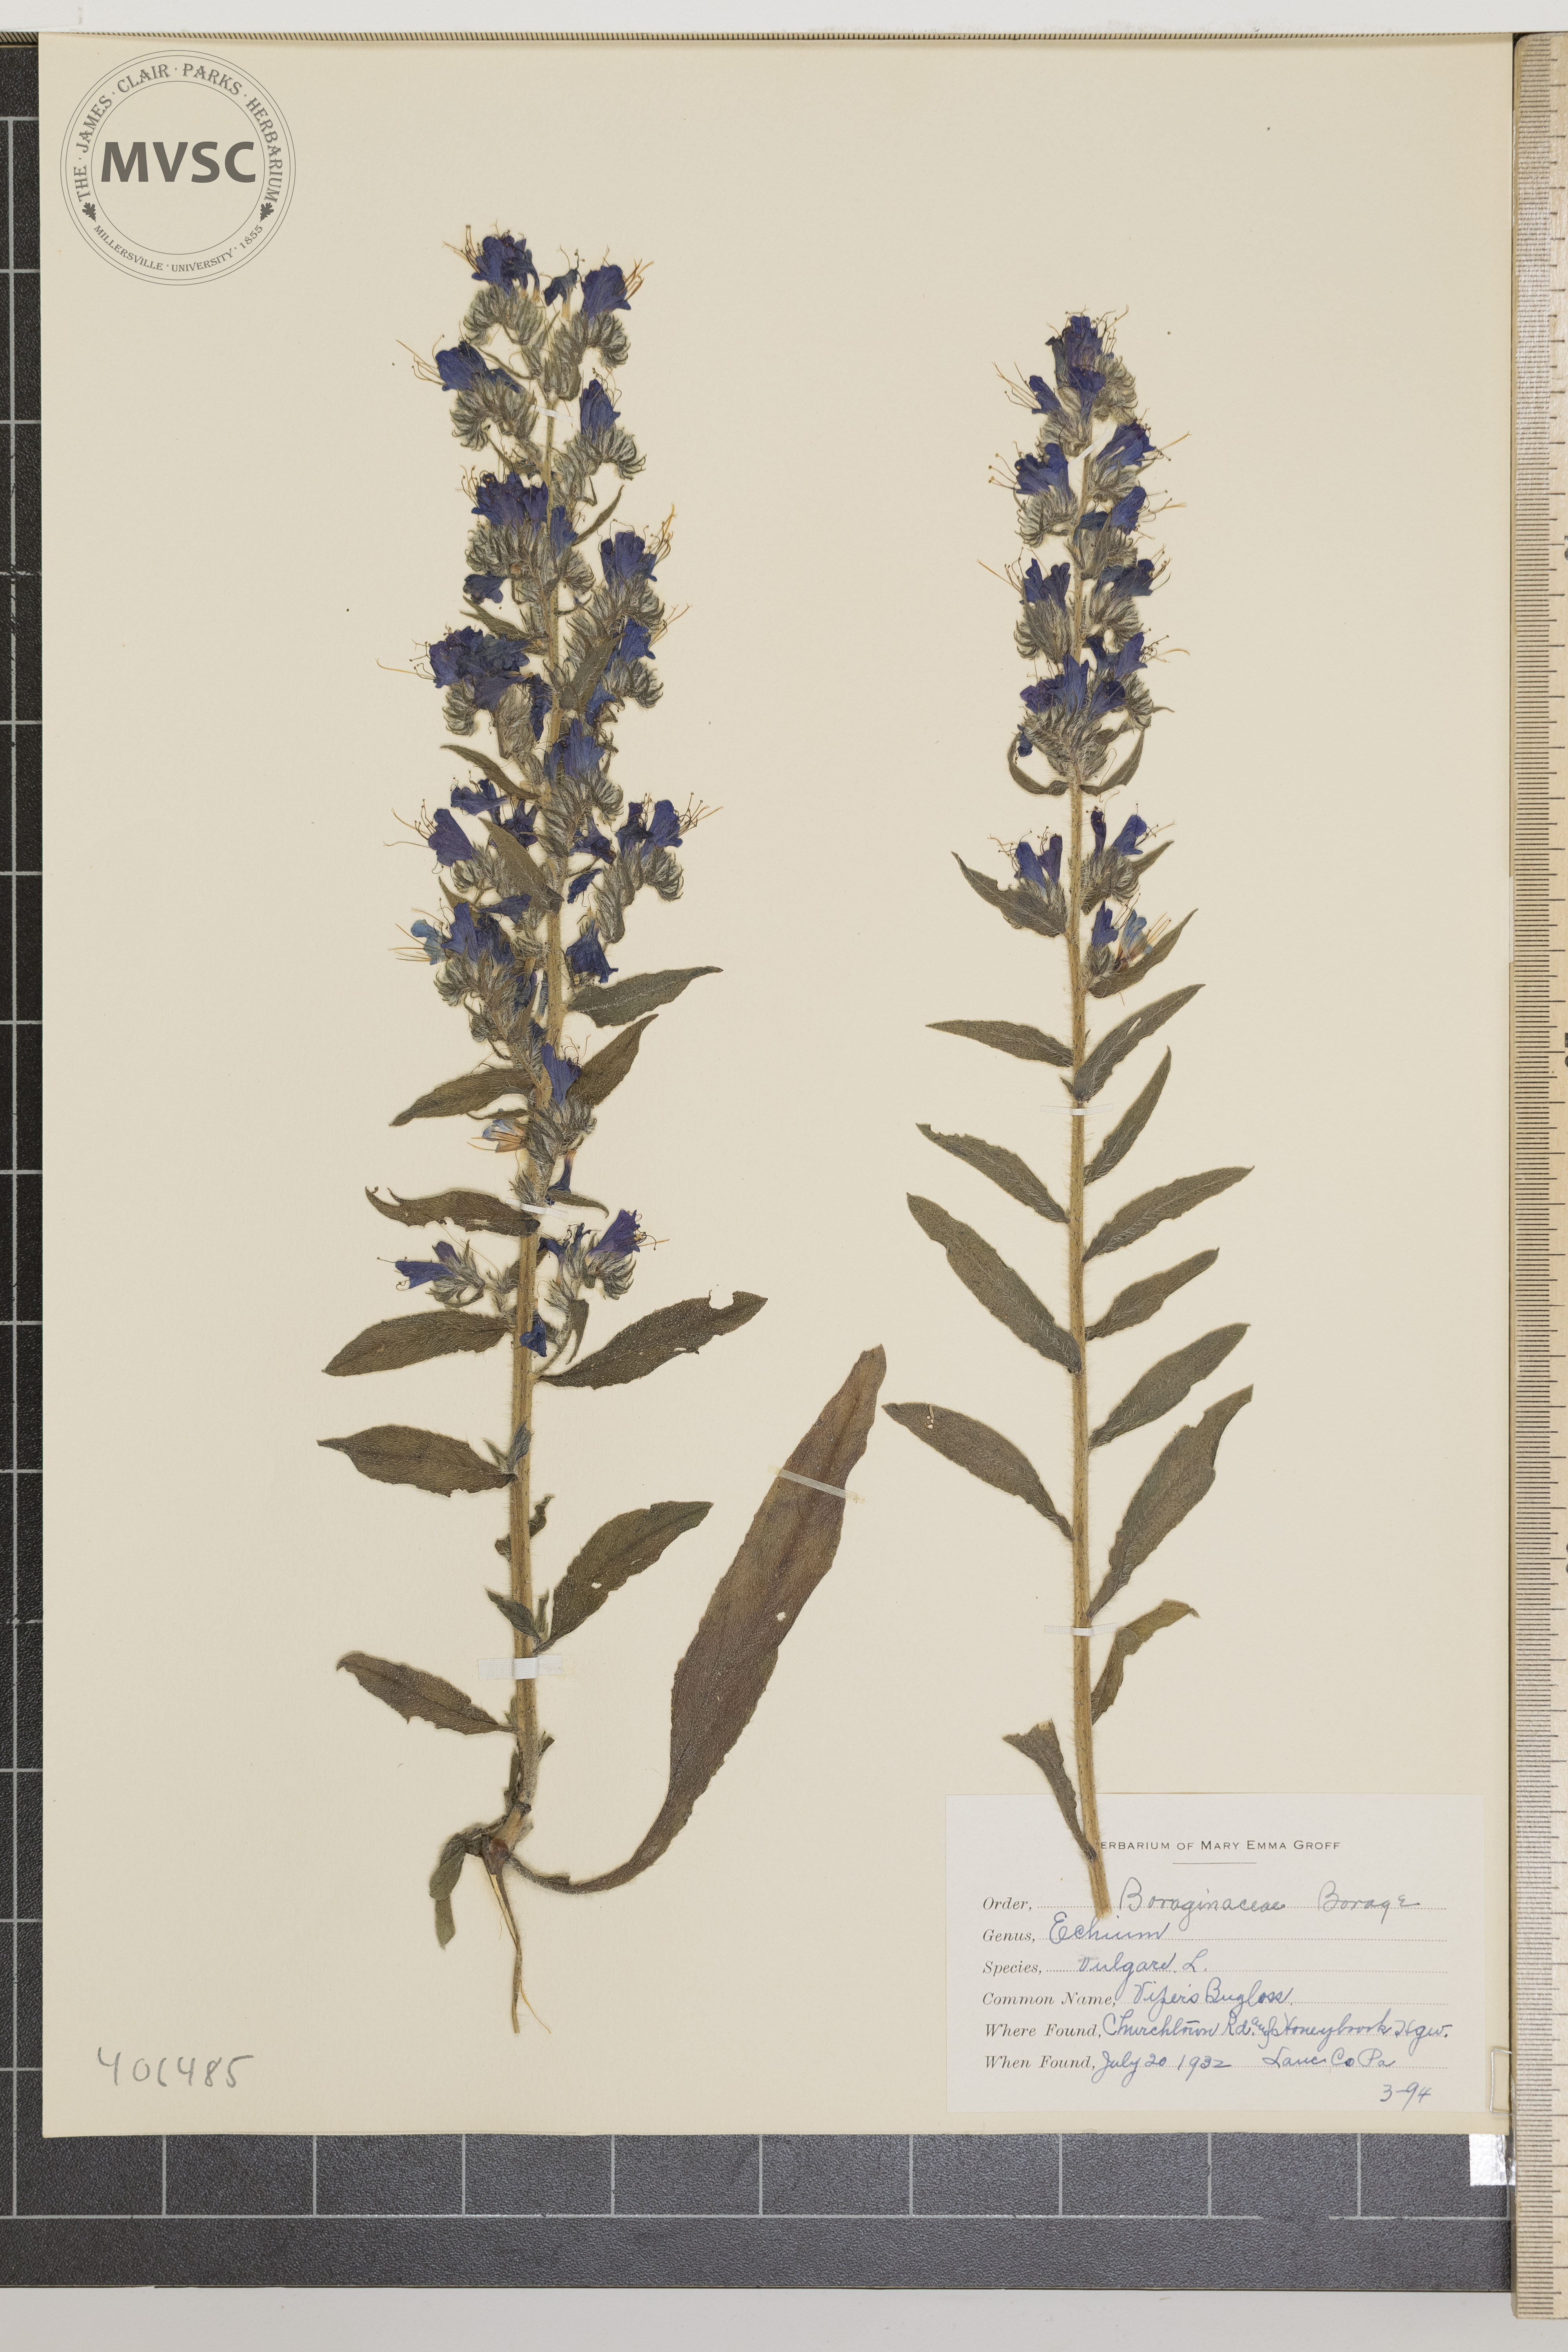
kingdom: Plantae
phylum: Tracheophyta
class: Magnoliopsida
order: Boraginales
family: Boraginaceae
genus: Echium
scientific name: Echium vulgare
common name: Viper's Bugloss
